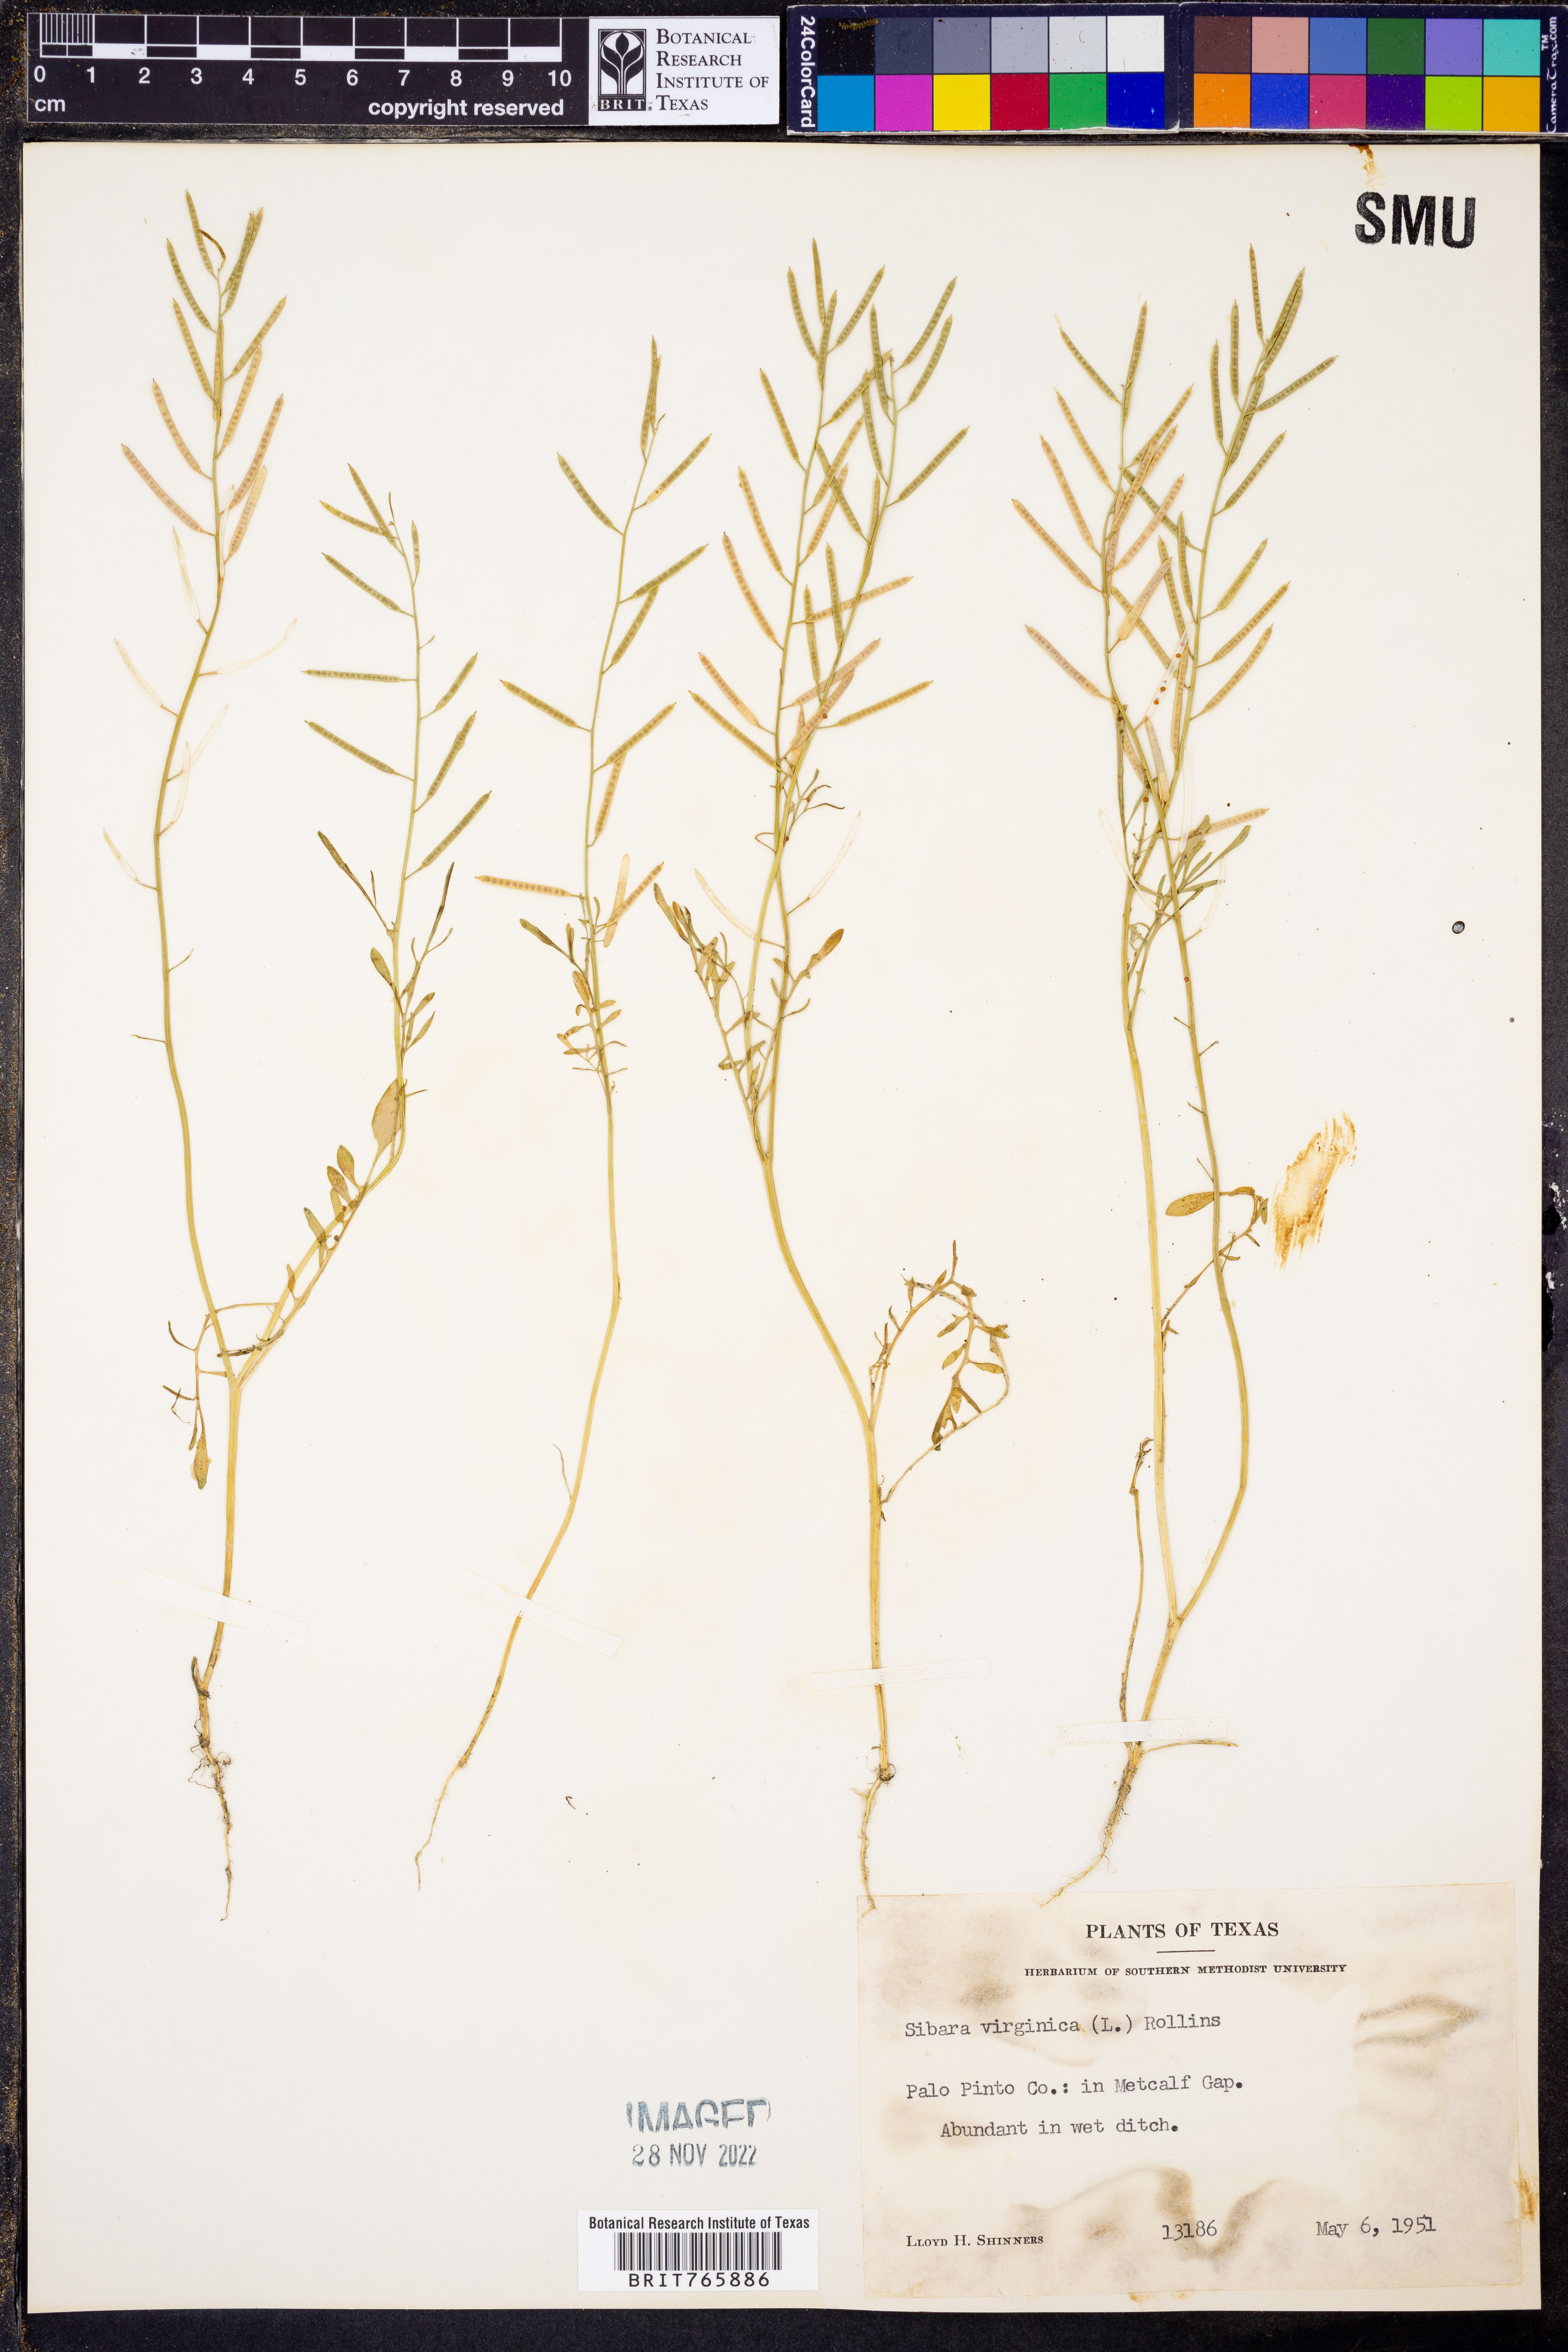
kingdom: Plantae
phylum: Tracheophyta
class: Magnoliopsida
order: Brassicales
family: Brassicaceae
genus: Planodes
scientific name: Planodes virginicum
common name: Virginia cress
